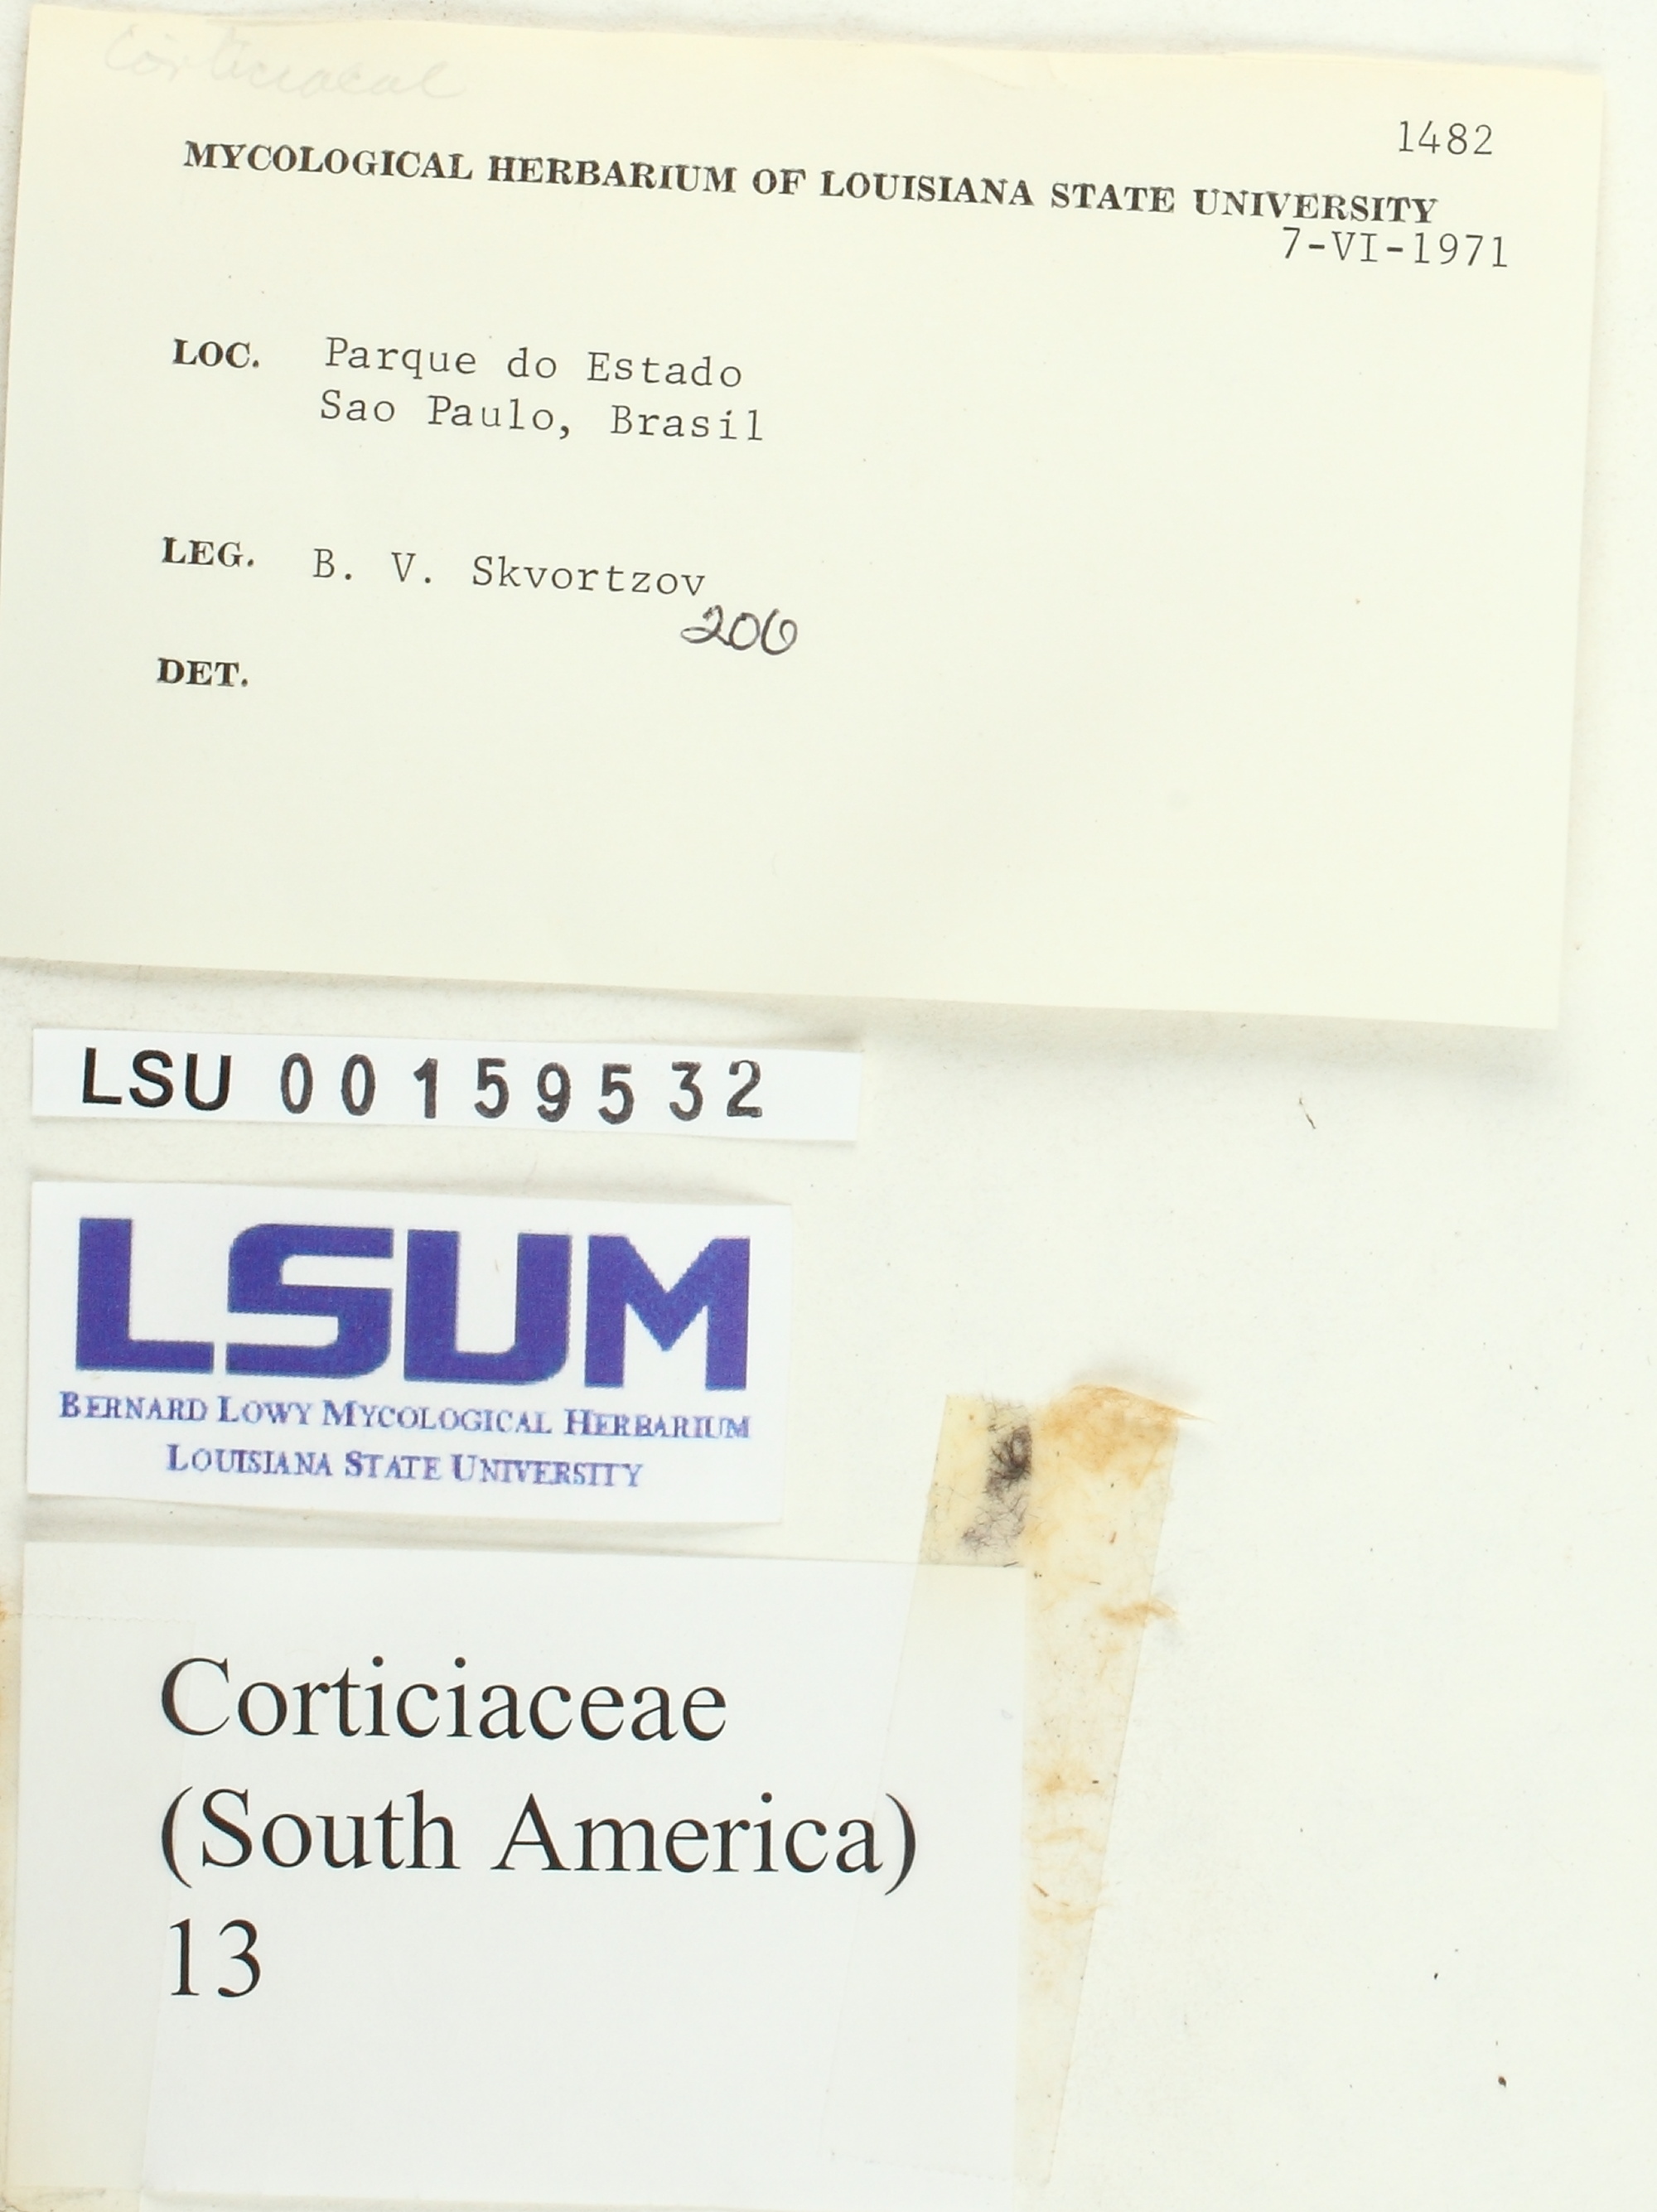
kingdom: Fungi
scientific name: Fungi
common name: Fungi
